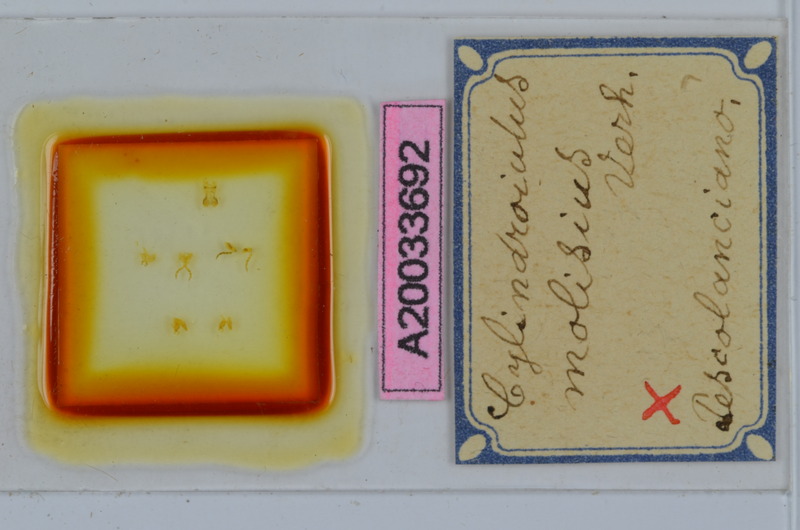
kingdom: Animalia
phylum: Arthropoda
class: Diplopoda
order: Julida
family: Julidae
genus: Cylindroiulus
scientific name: Cylindroiulus molisius
